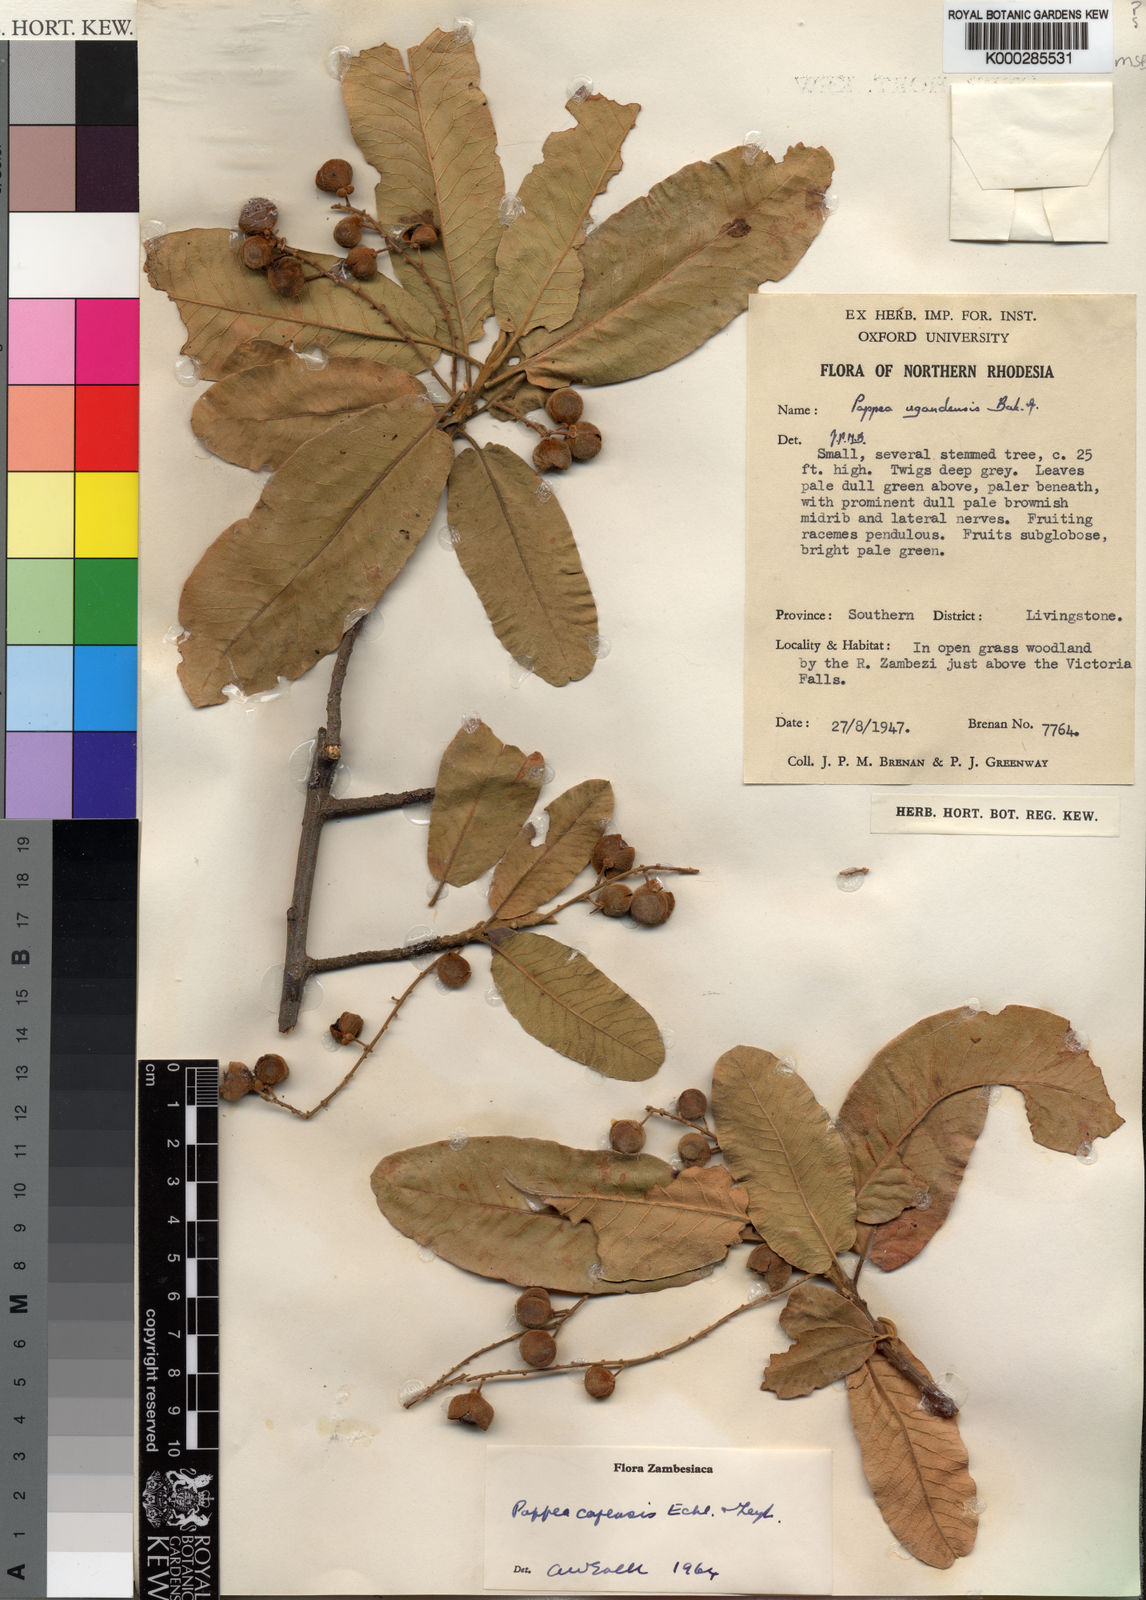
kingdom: Plantae
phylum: Tracheophyta
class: Magnoliopsida
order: Sapindales
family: Sapindaceae
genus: Pappea
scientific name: Pappea capensis
